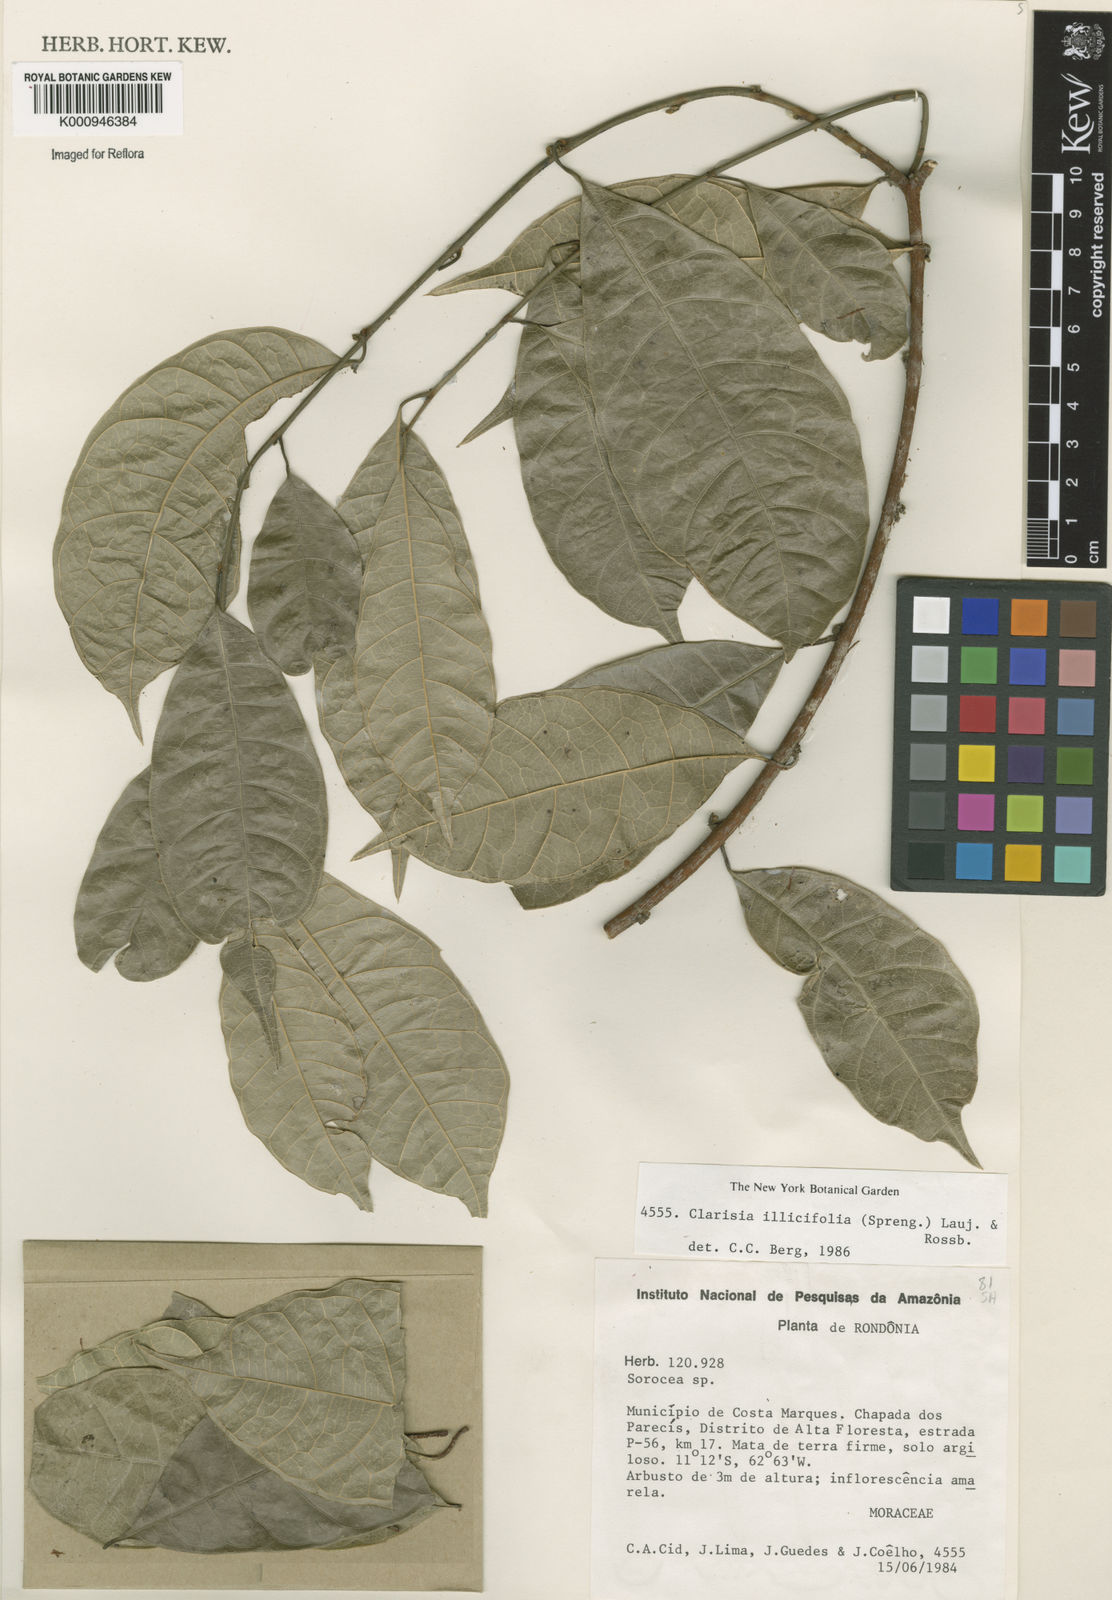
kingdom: Plantae
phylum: Tracheophyta
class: Magnoliopsida
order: Rosales
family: Moraceae
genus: Clarisia
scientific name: Clarisia ilicifolia
